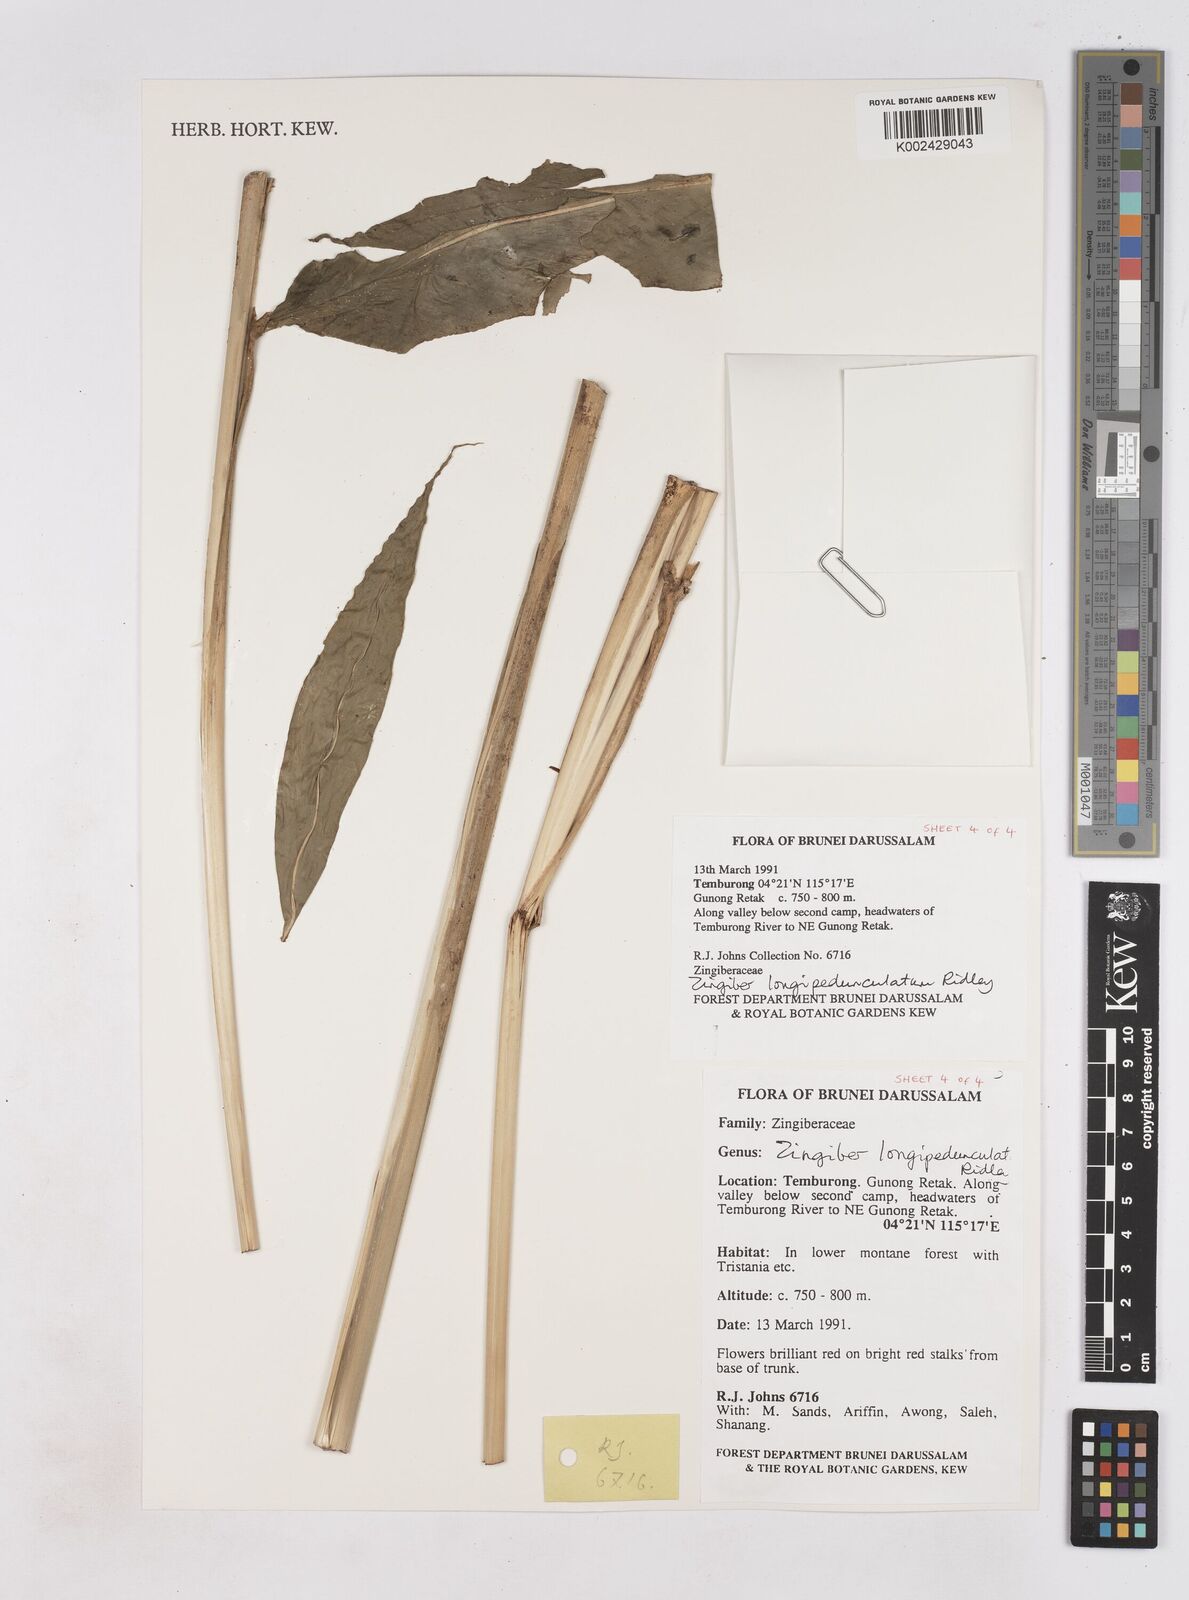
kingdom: Plantae
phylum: Tracheophyta
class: Liliopsida
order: Zingiberales
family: Zingiberaceae
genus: Zingiber
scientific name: Zingiber longipedunculatum
